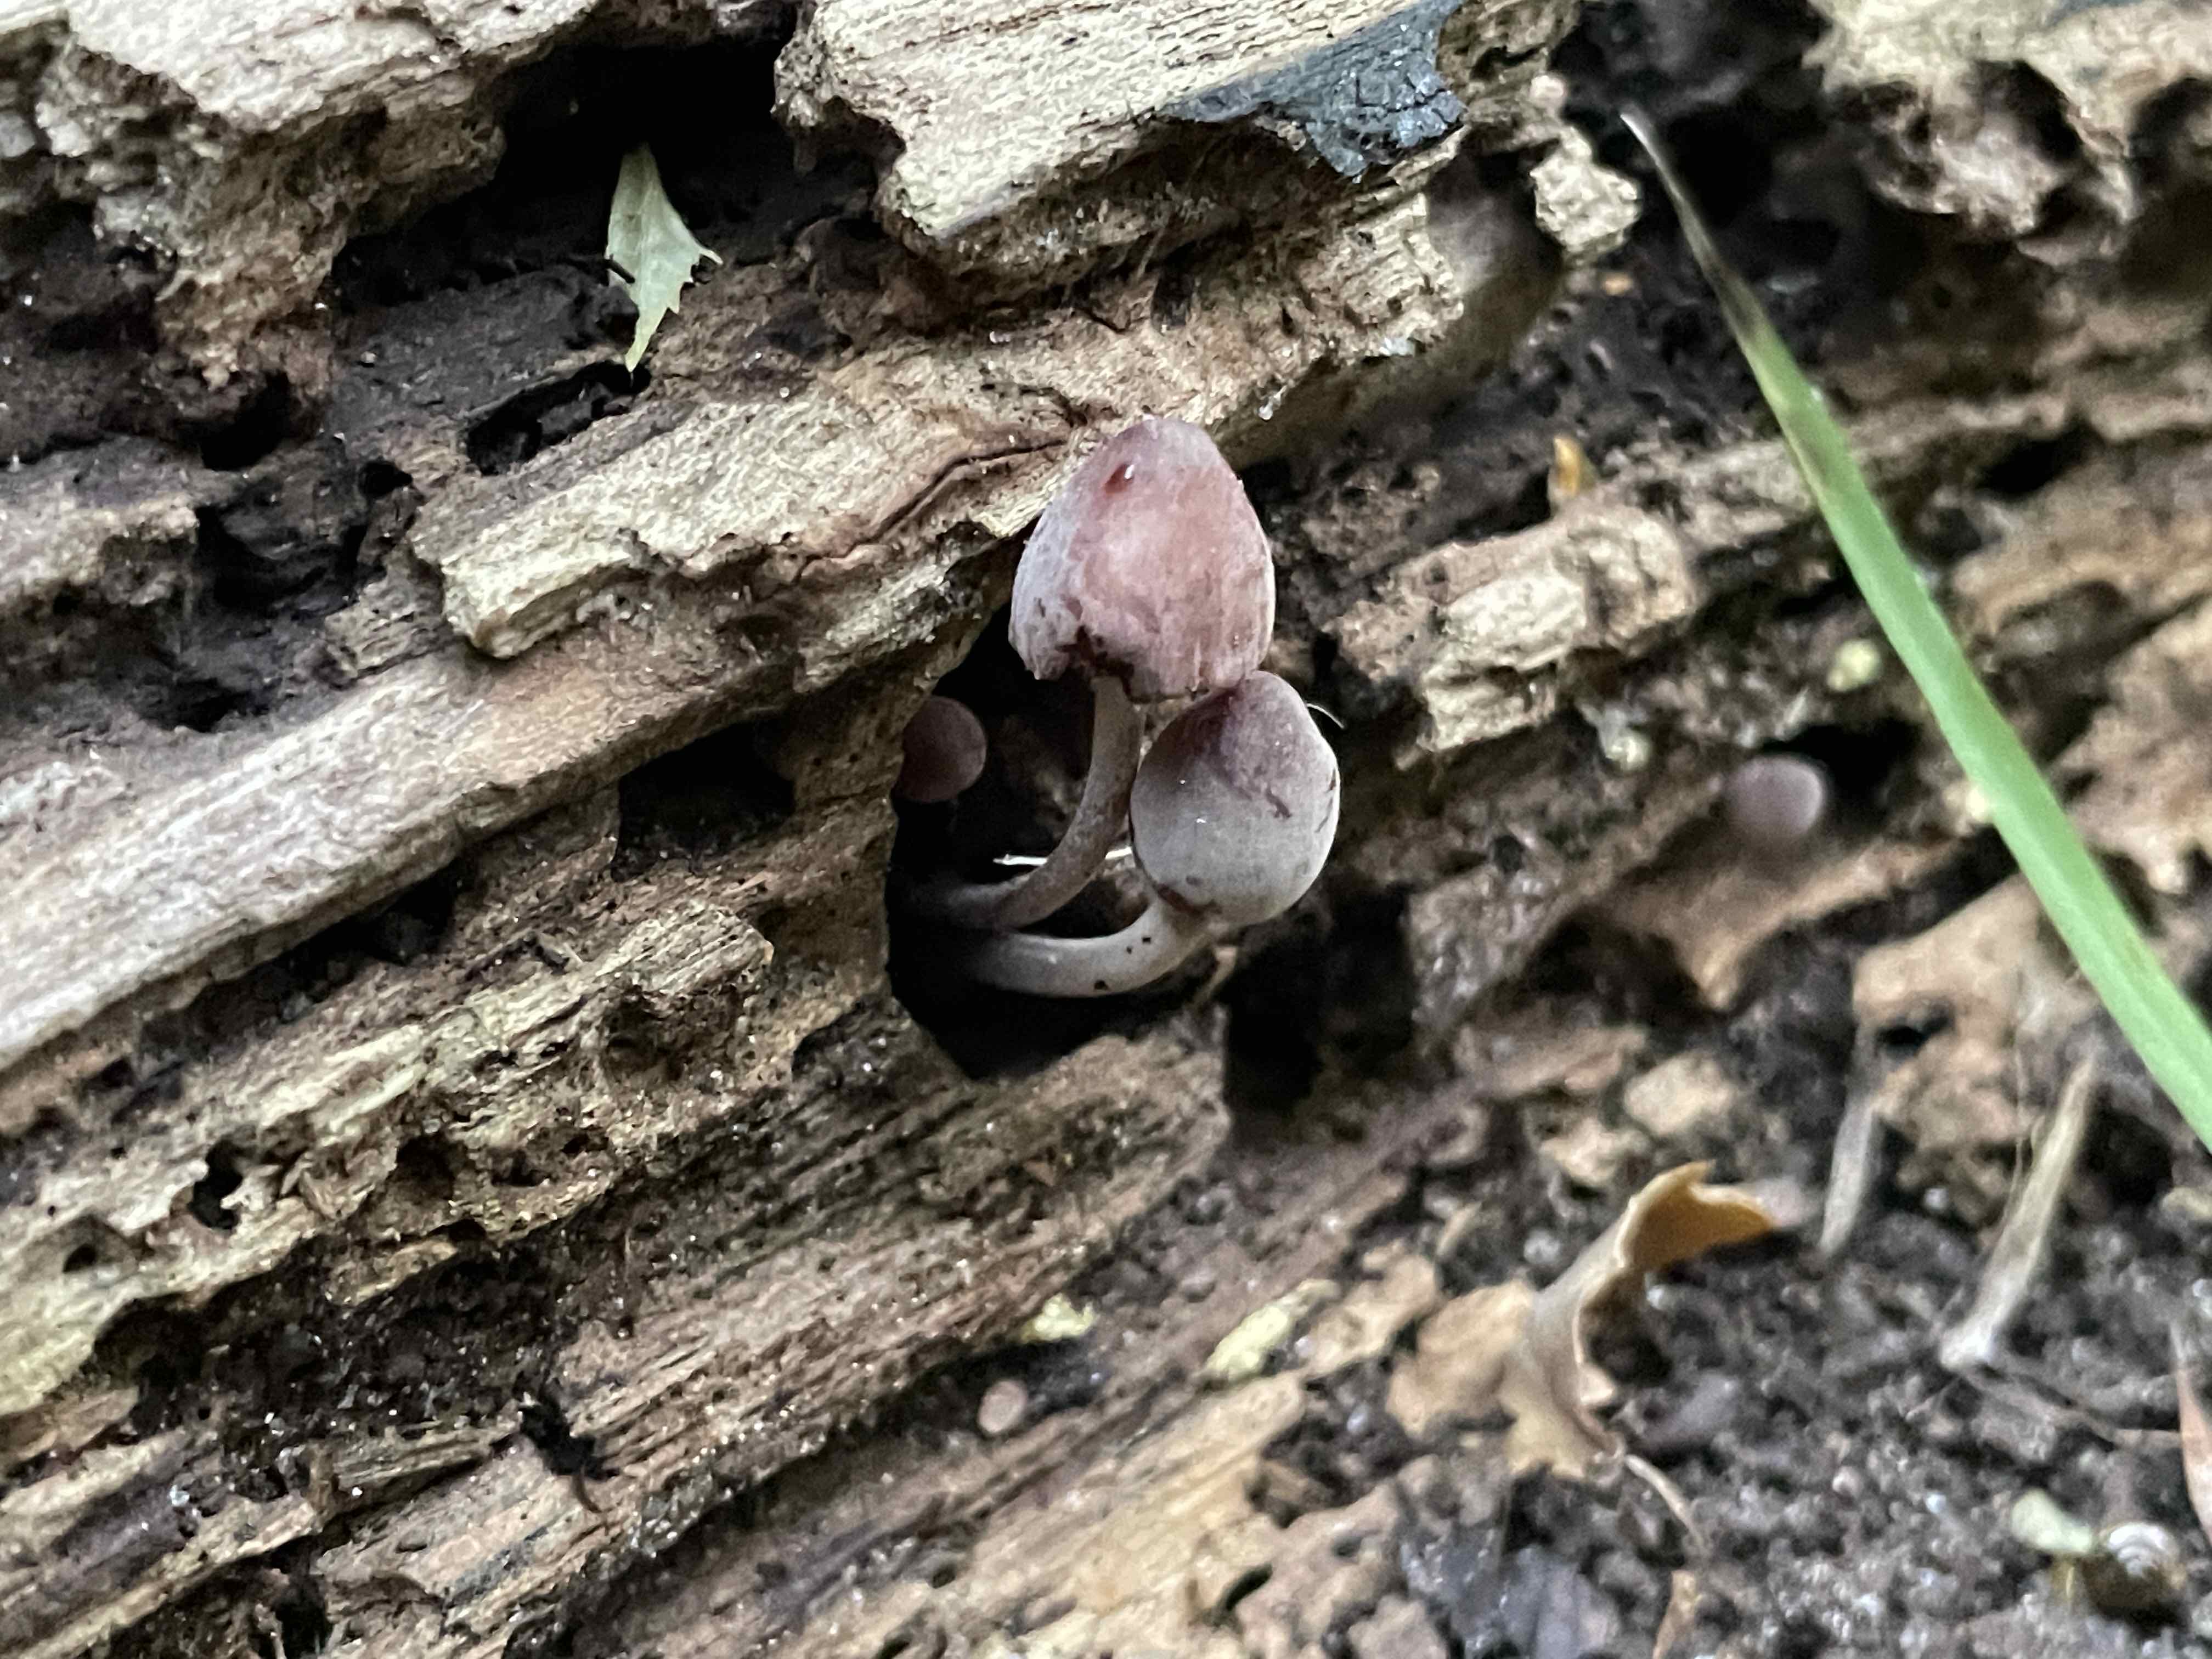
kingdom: Fungi
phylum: Basidiomycota
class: Agaricomycetes
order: Agaricales
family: Mycenaceae
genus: Mycena
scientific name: Mycena haematopus
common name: blødende huesvamp
